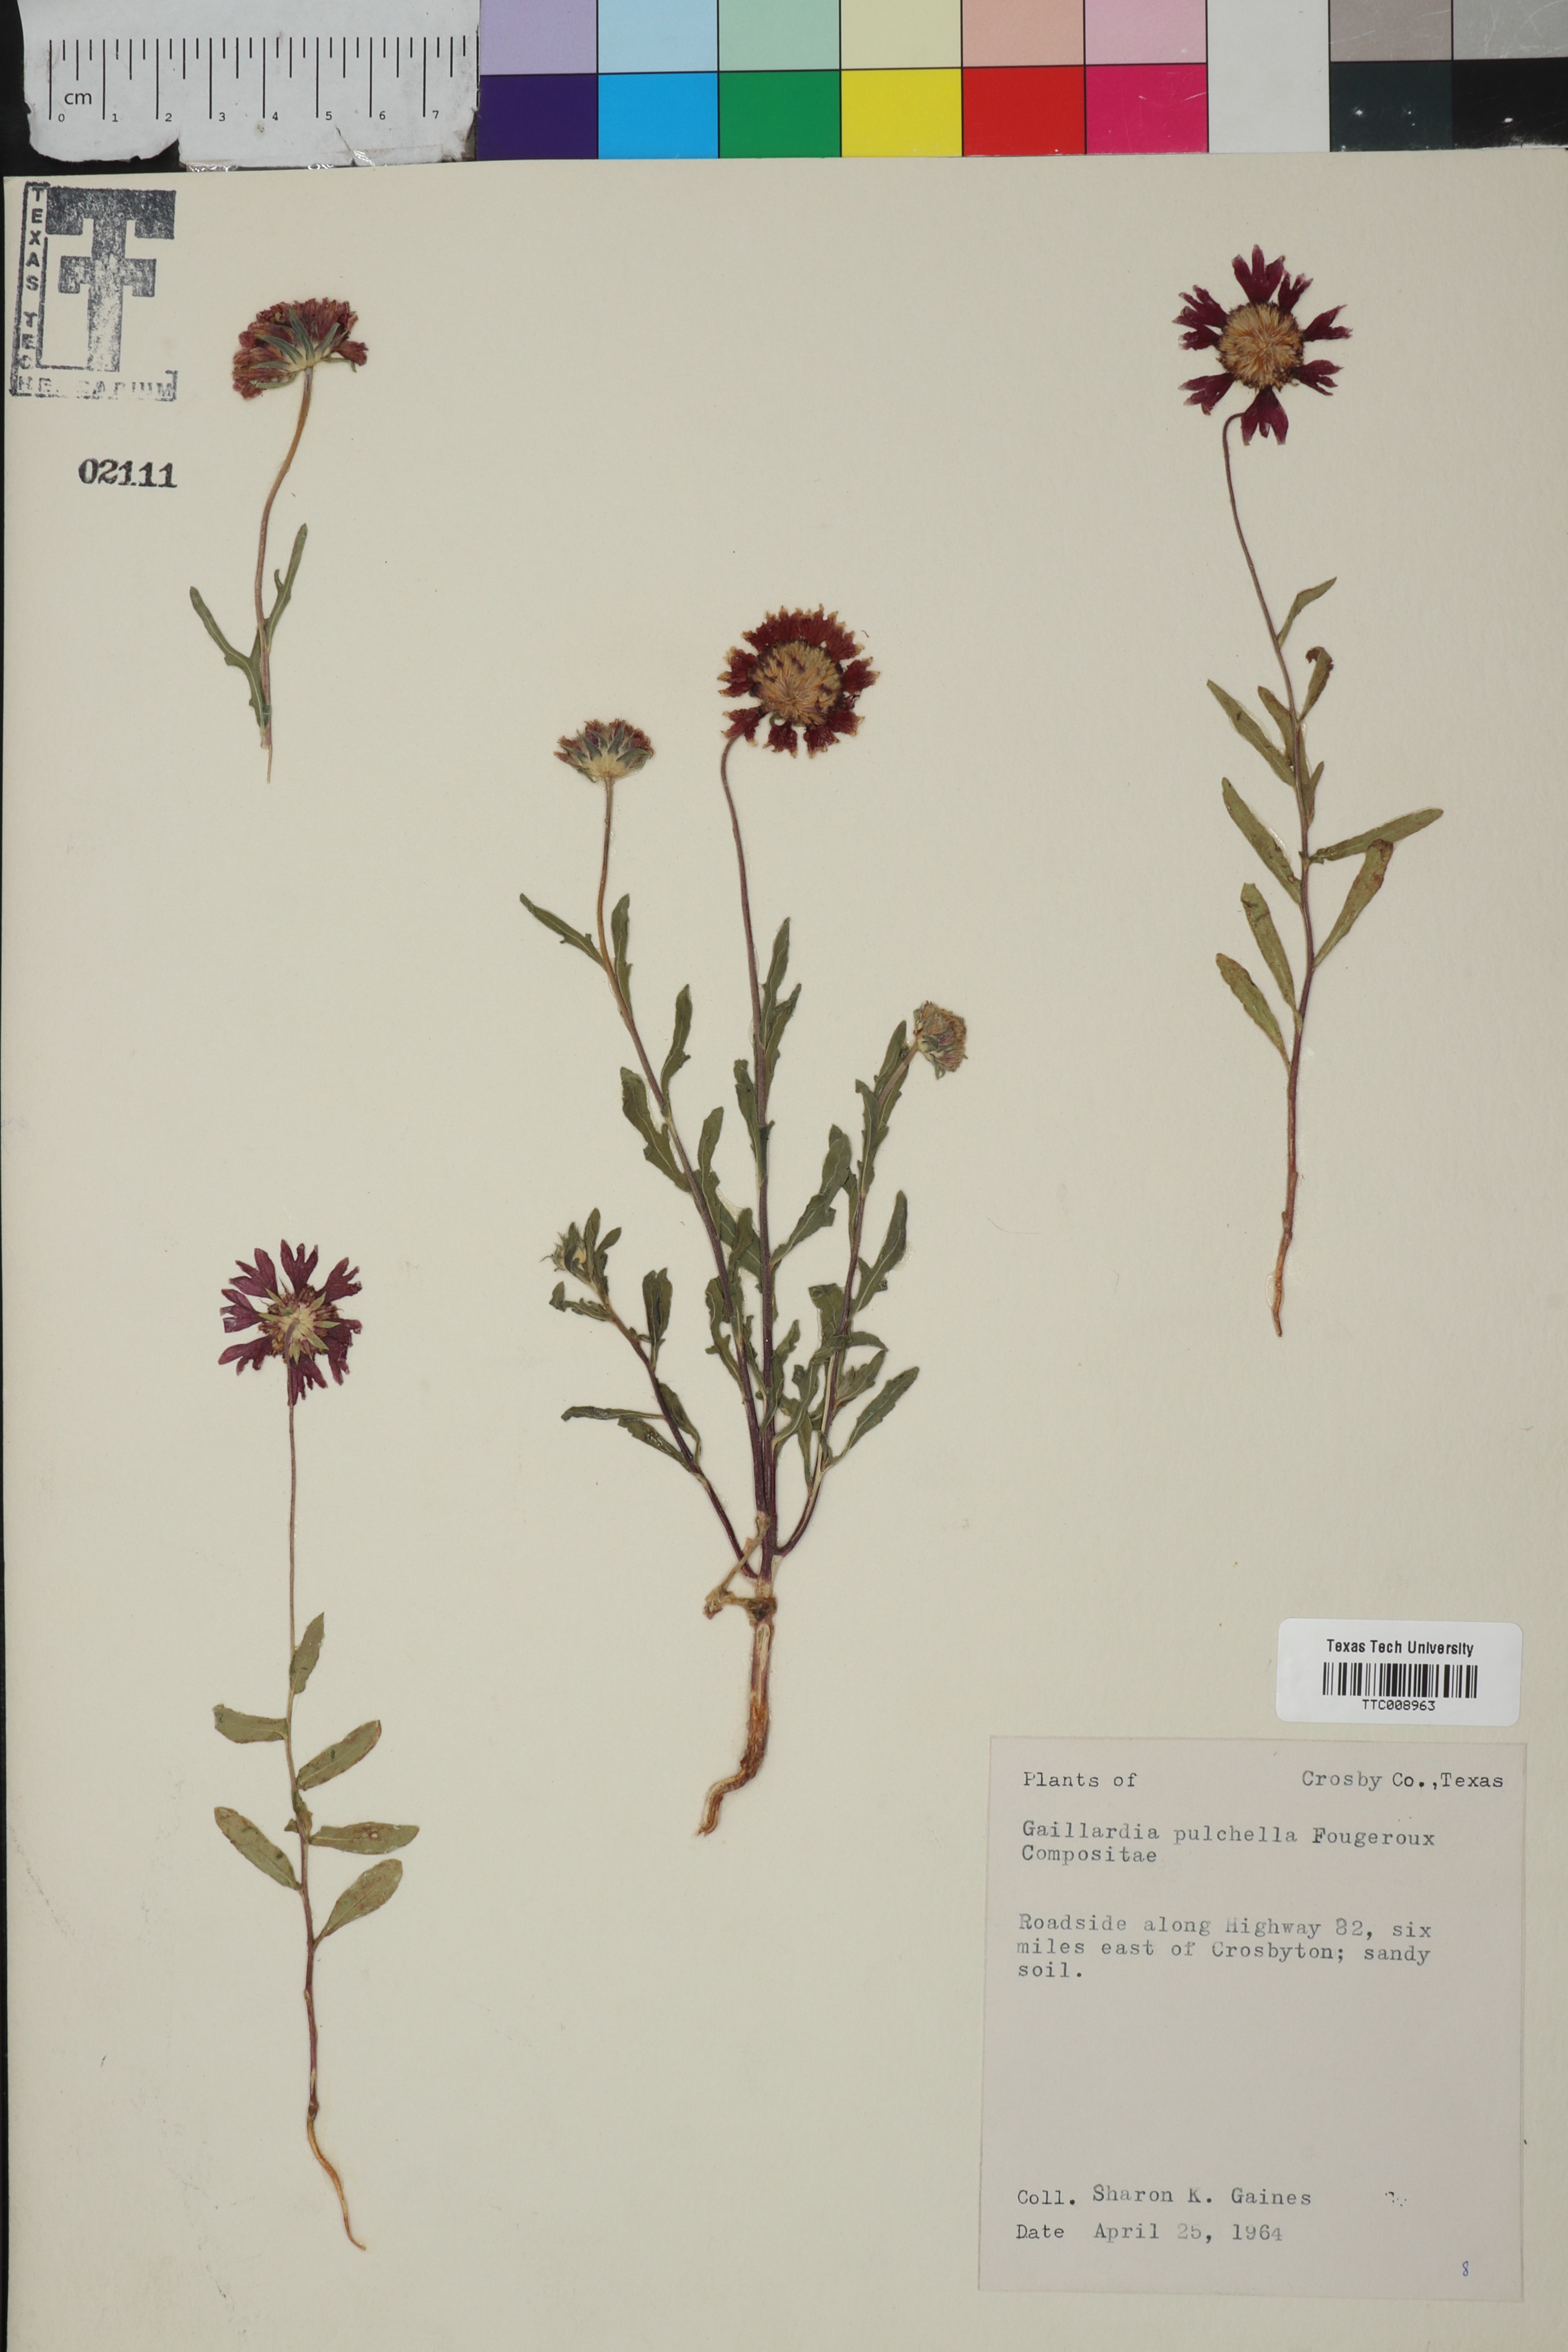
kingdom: Plantae
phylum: Tracheophyta
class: Magnoliopsida
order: Asterales
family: Asteraceae
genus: Gaillardia
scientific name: Gaillardia pulchella
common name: Firewheel
